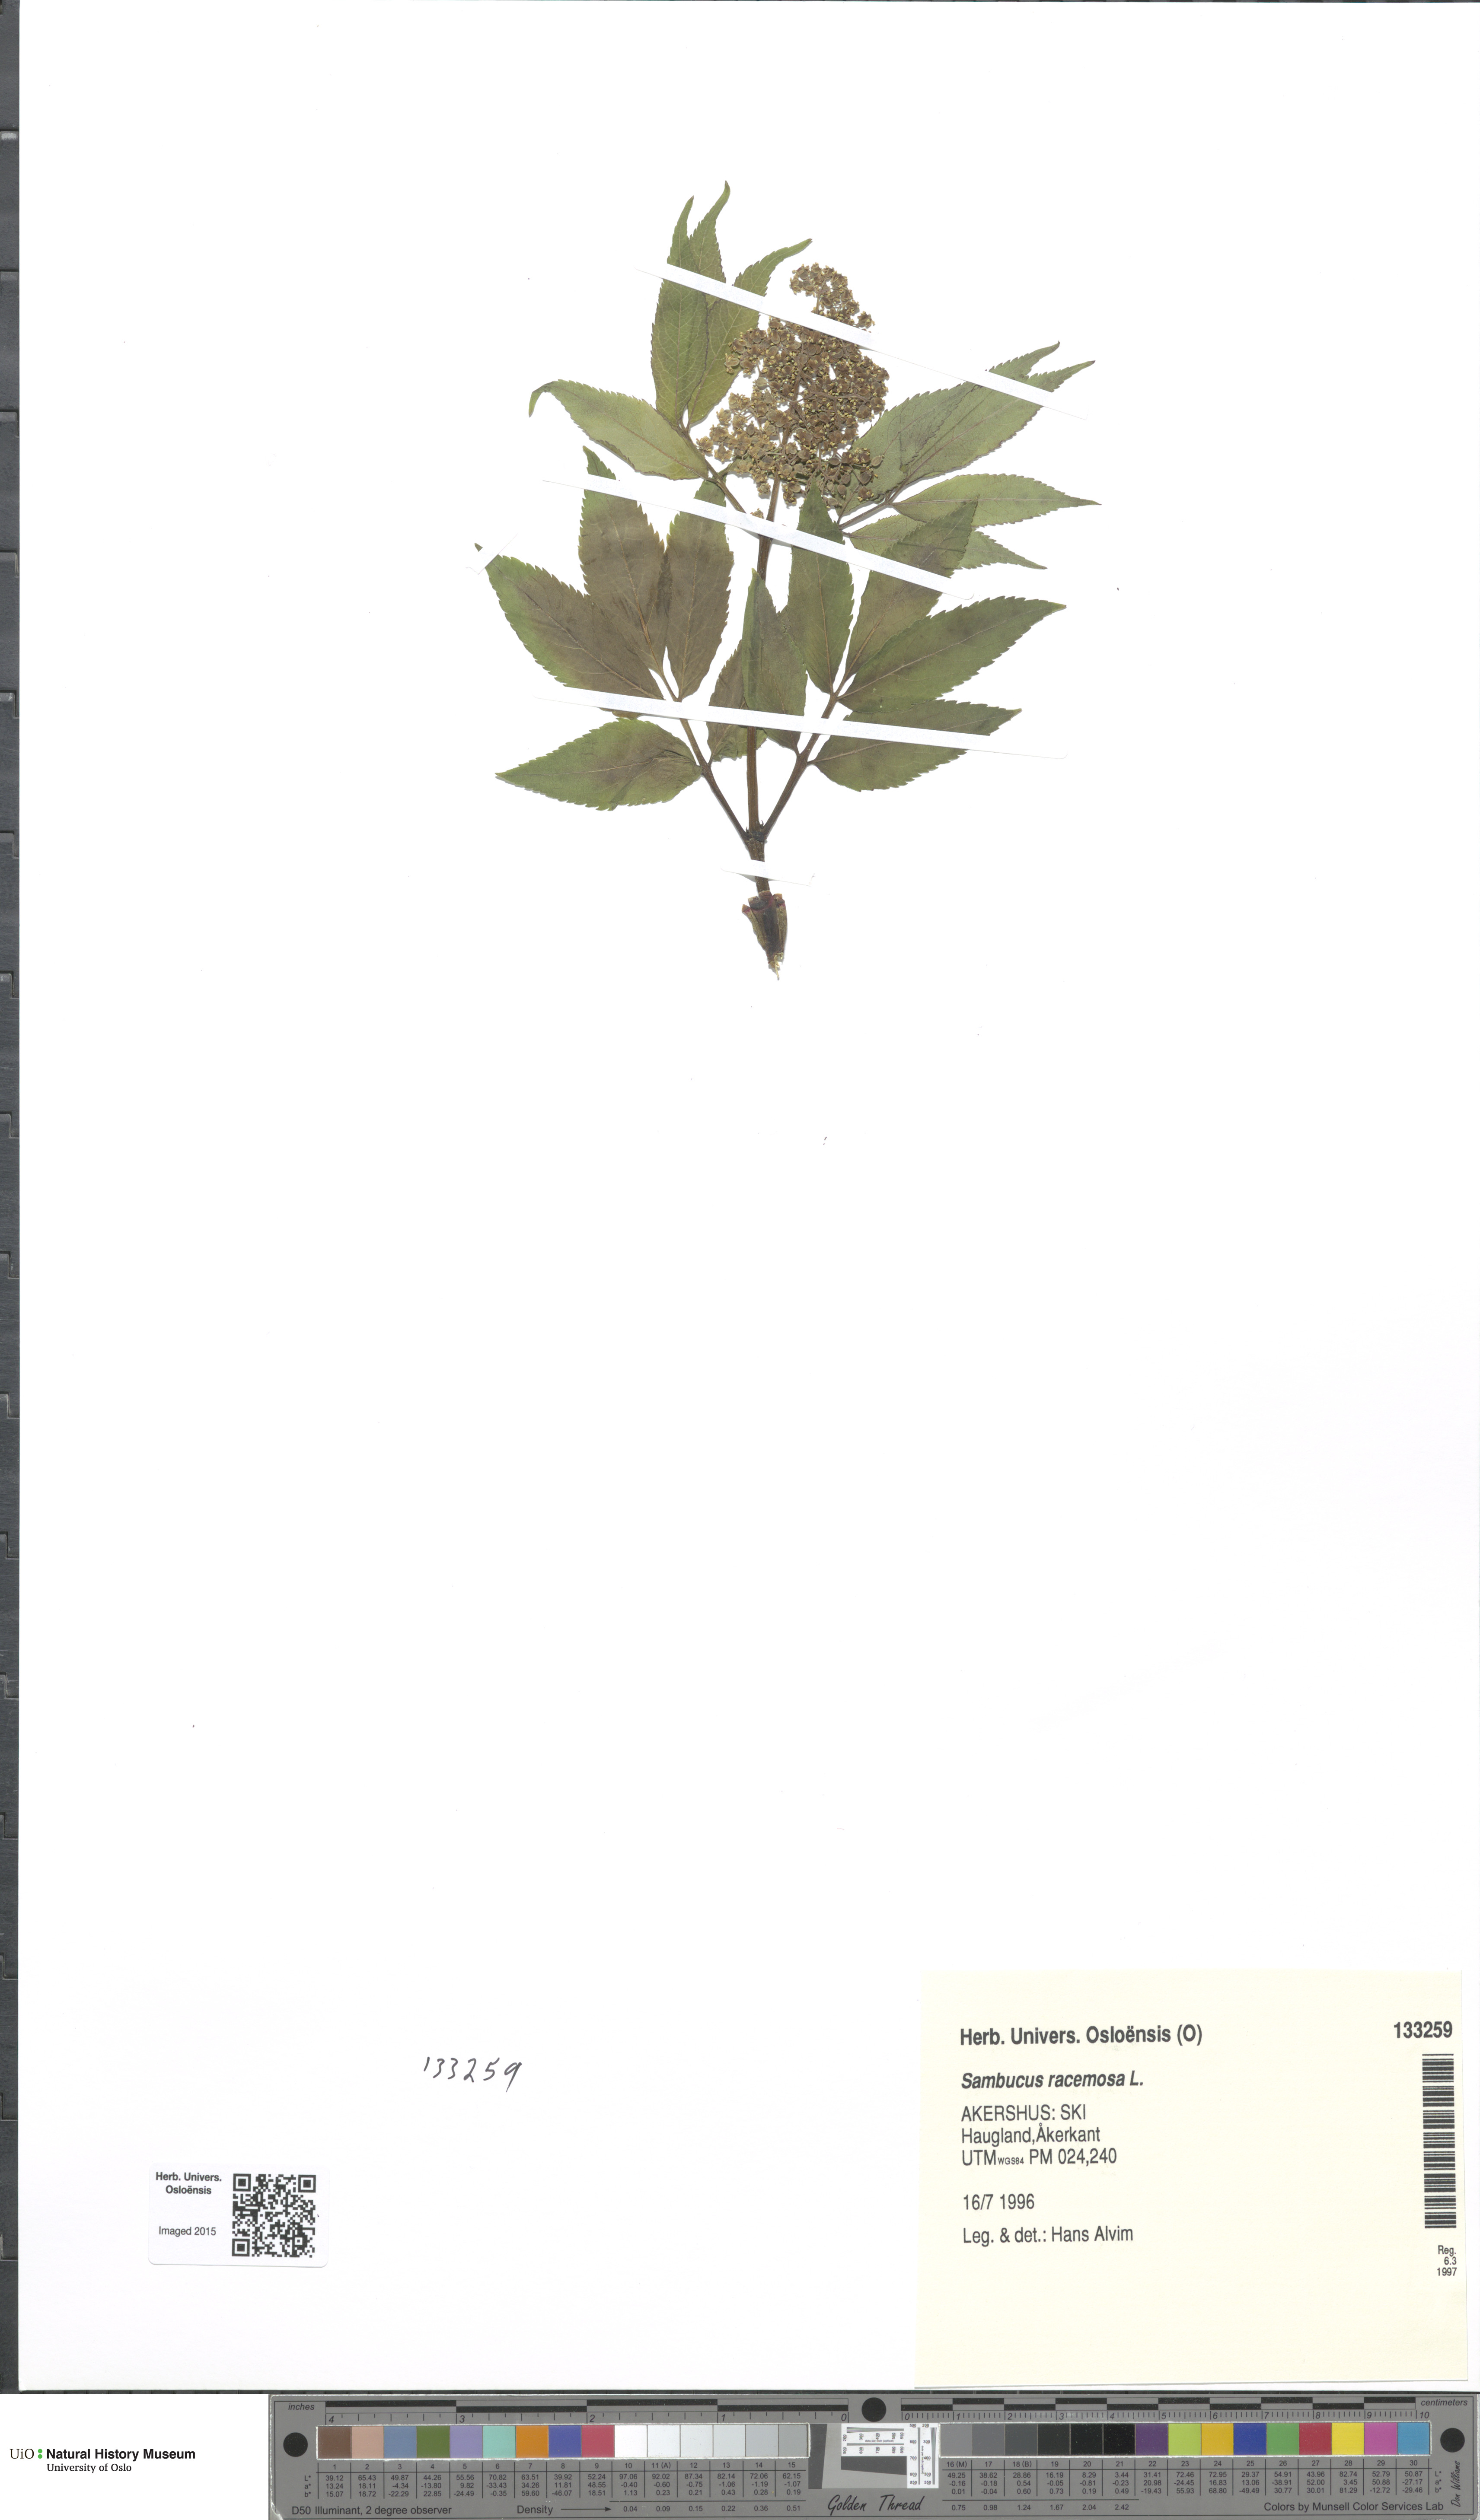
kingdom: Plantae
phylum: Tracheophyta
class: Magnoliopsida
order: Dipsacales
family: Viburnaceae
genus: Sambucus
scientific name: Sambucus racemosa
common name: Red-berried elder
